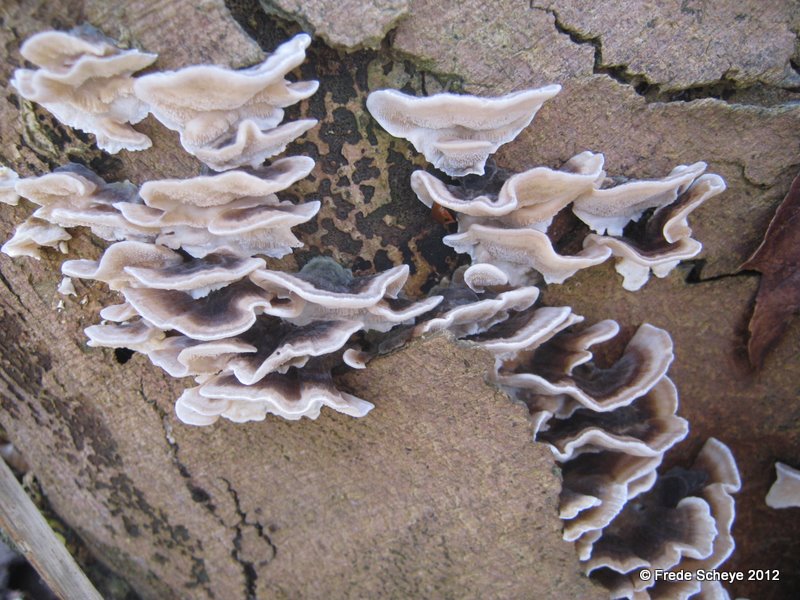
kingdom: Fungi
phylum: Basidiomycota
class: Agaricomycetes
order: Polyporales
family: Polyporaceae
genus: Trametes
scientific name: Trametes versicolor
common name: broget læderporesvamp
